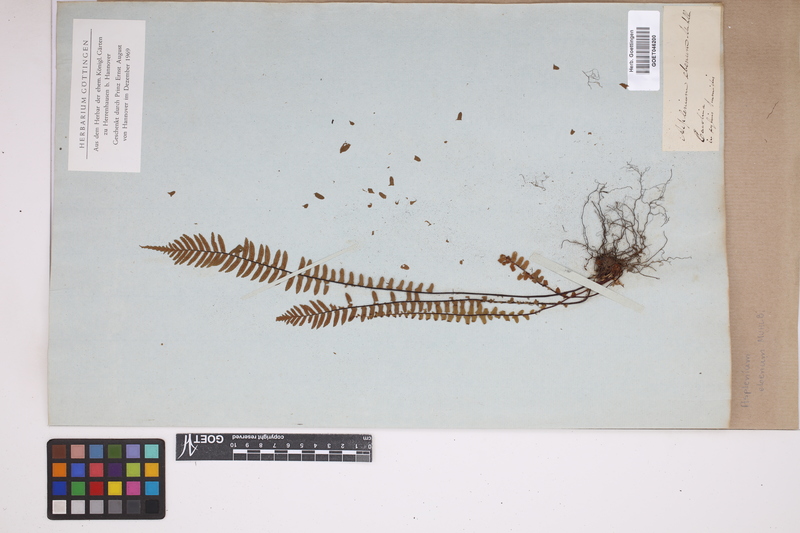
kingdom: Plantae
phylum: Tracheophyta
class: Polypodiopsida
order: Polypodiales
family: Aspleniaceae
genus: Asplenium
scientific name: Asplenium ebenum
